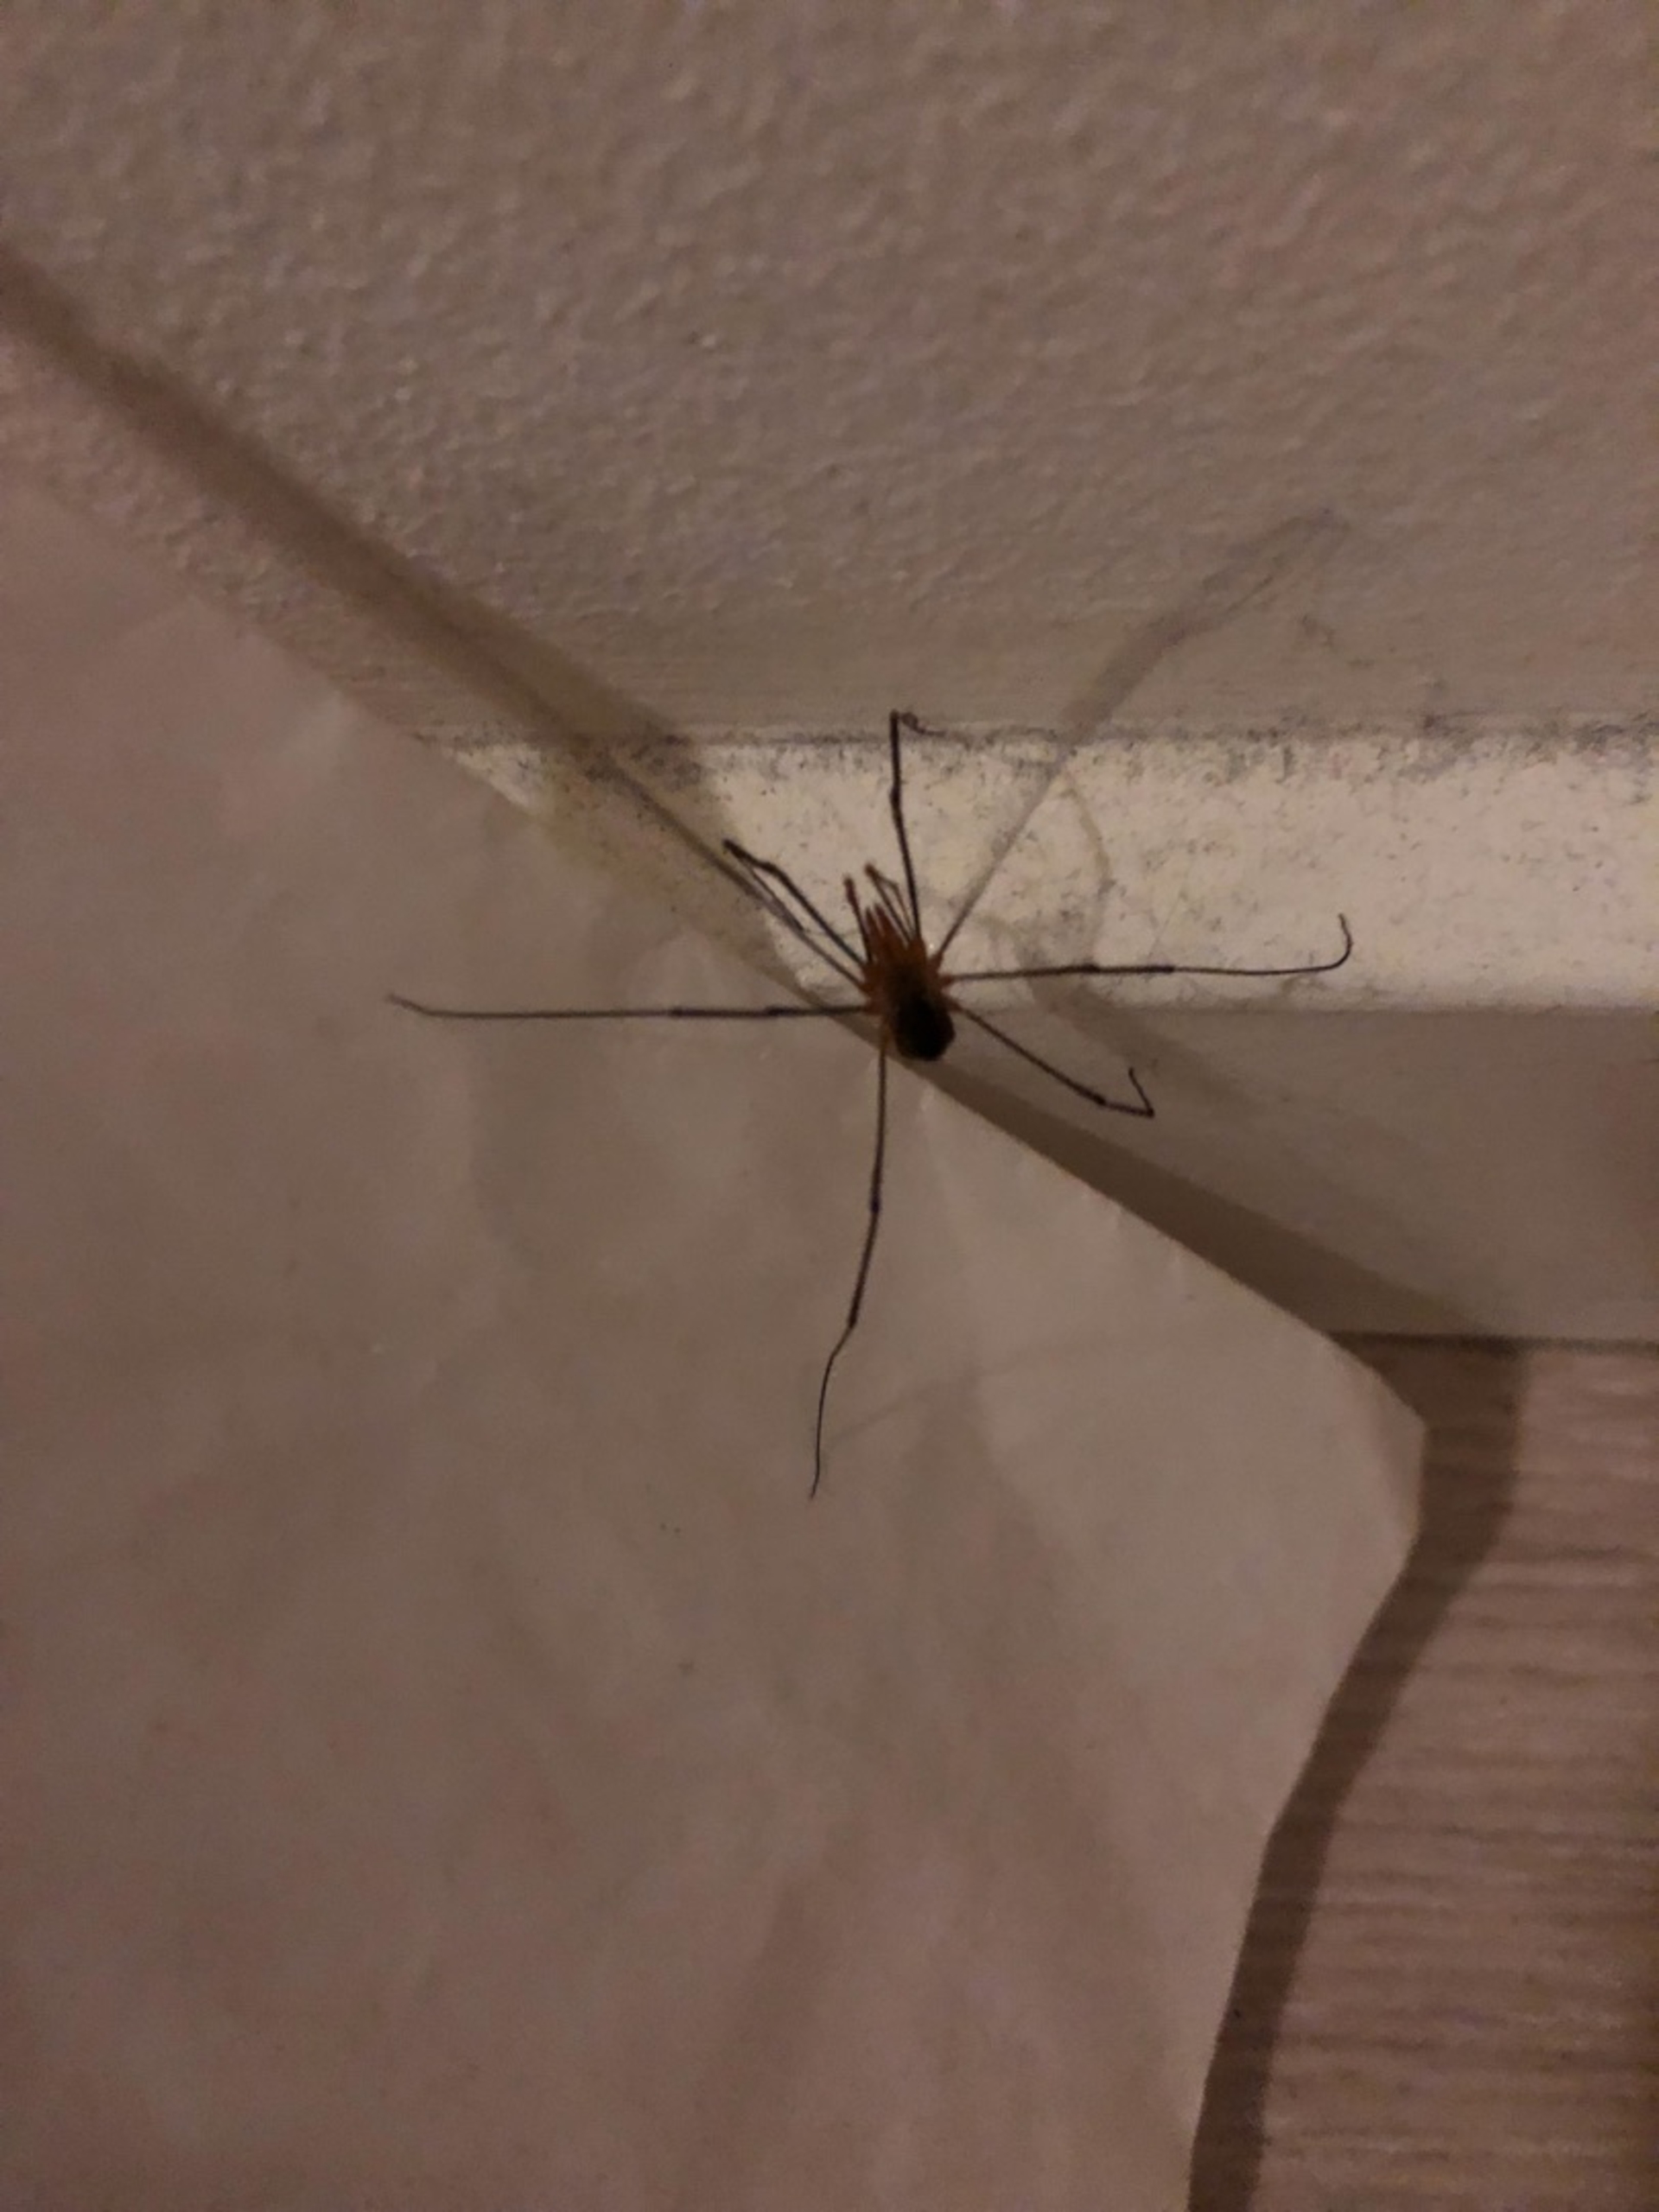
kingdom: Animalia
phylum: Arthropoda
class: Arachnida
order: Opiliones
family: Phalangiidae
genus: Phalangium
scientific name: Phalangium opilio
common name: Hornmejer
